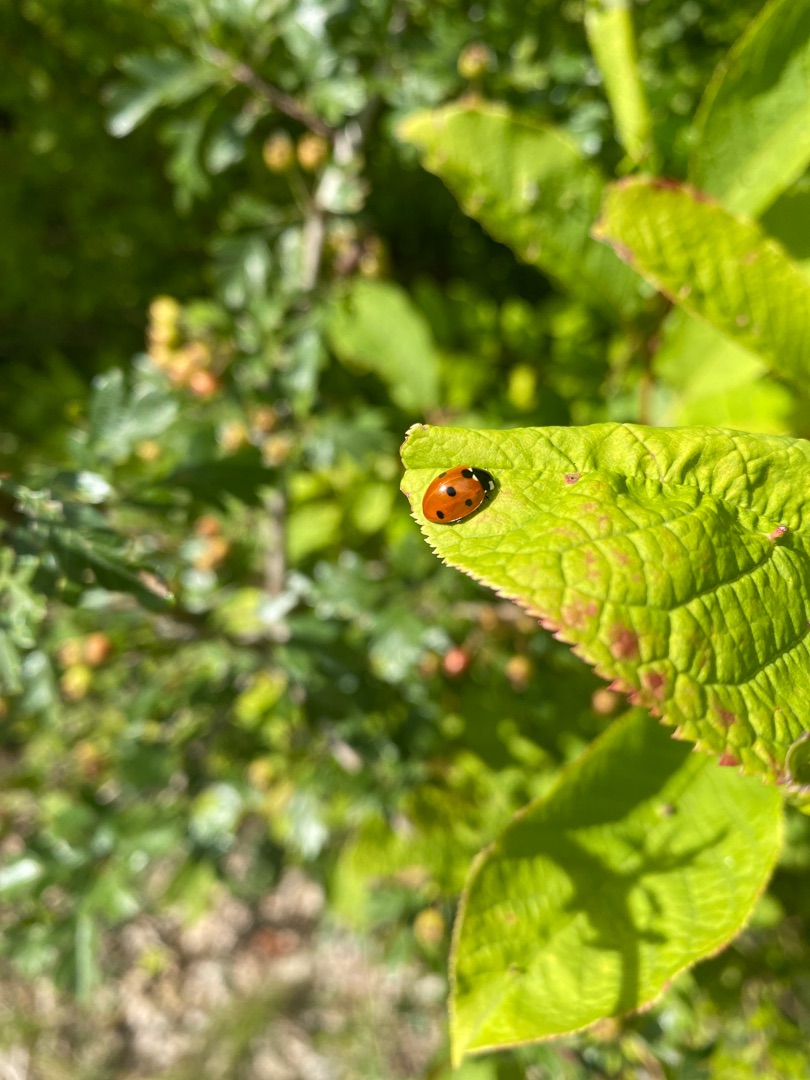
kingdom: Animalia
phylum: Arthropoda
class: Insecta
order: Coleoptera
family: Coccinellidae
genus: Coccinella
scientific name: Coccinella septempunctata
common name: Syvplettet mariehøne
